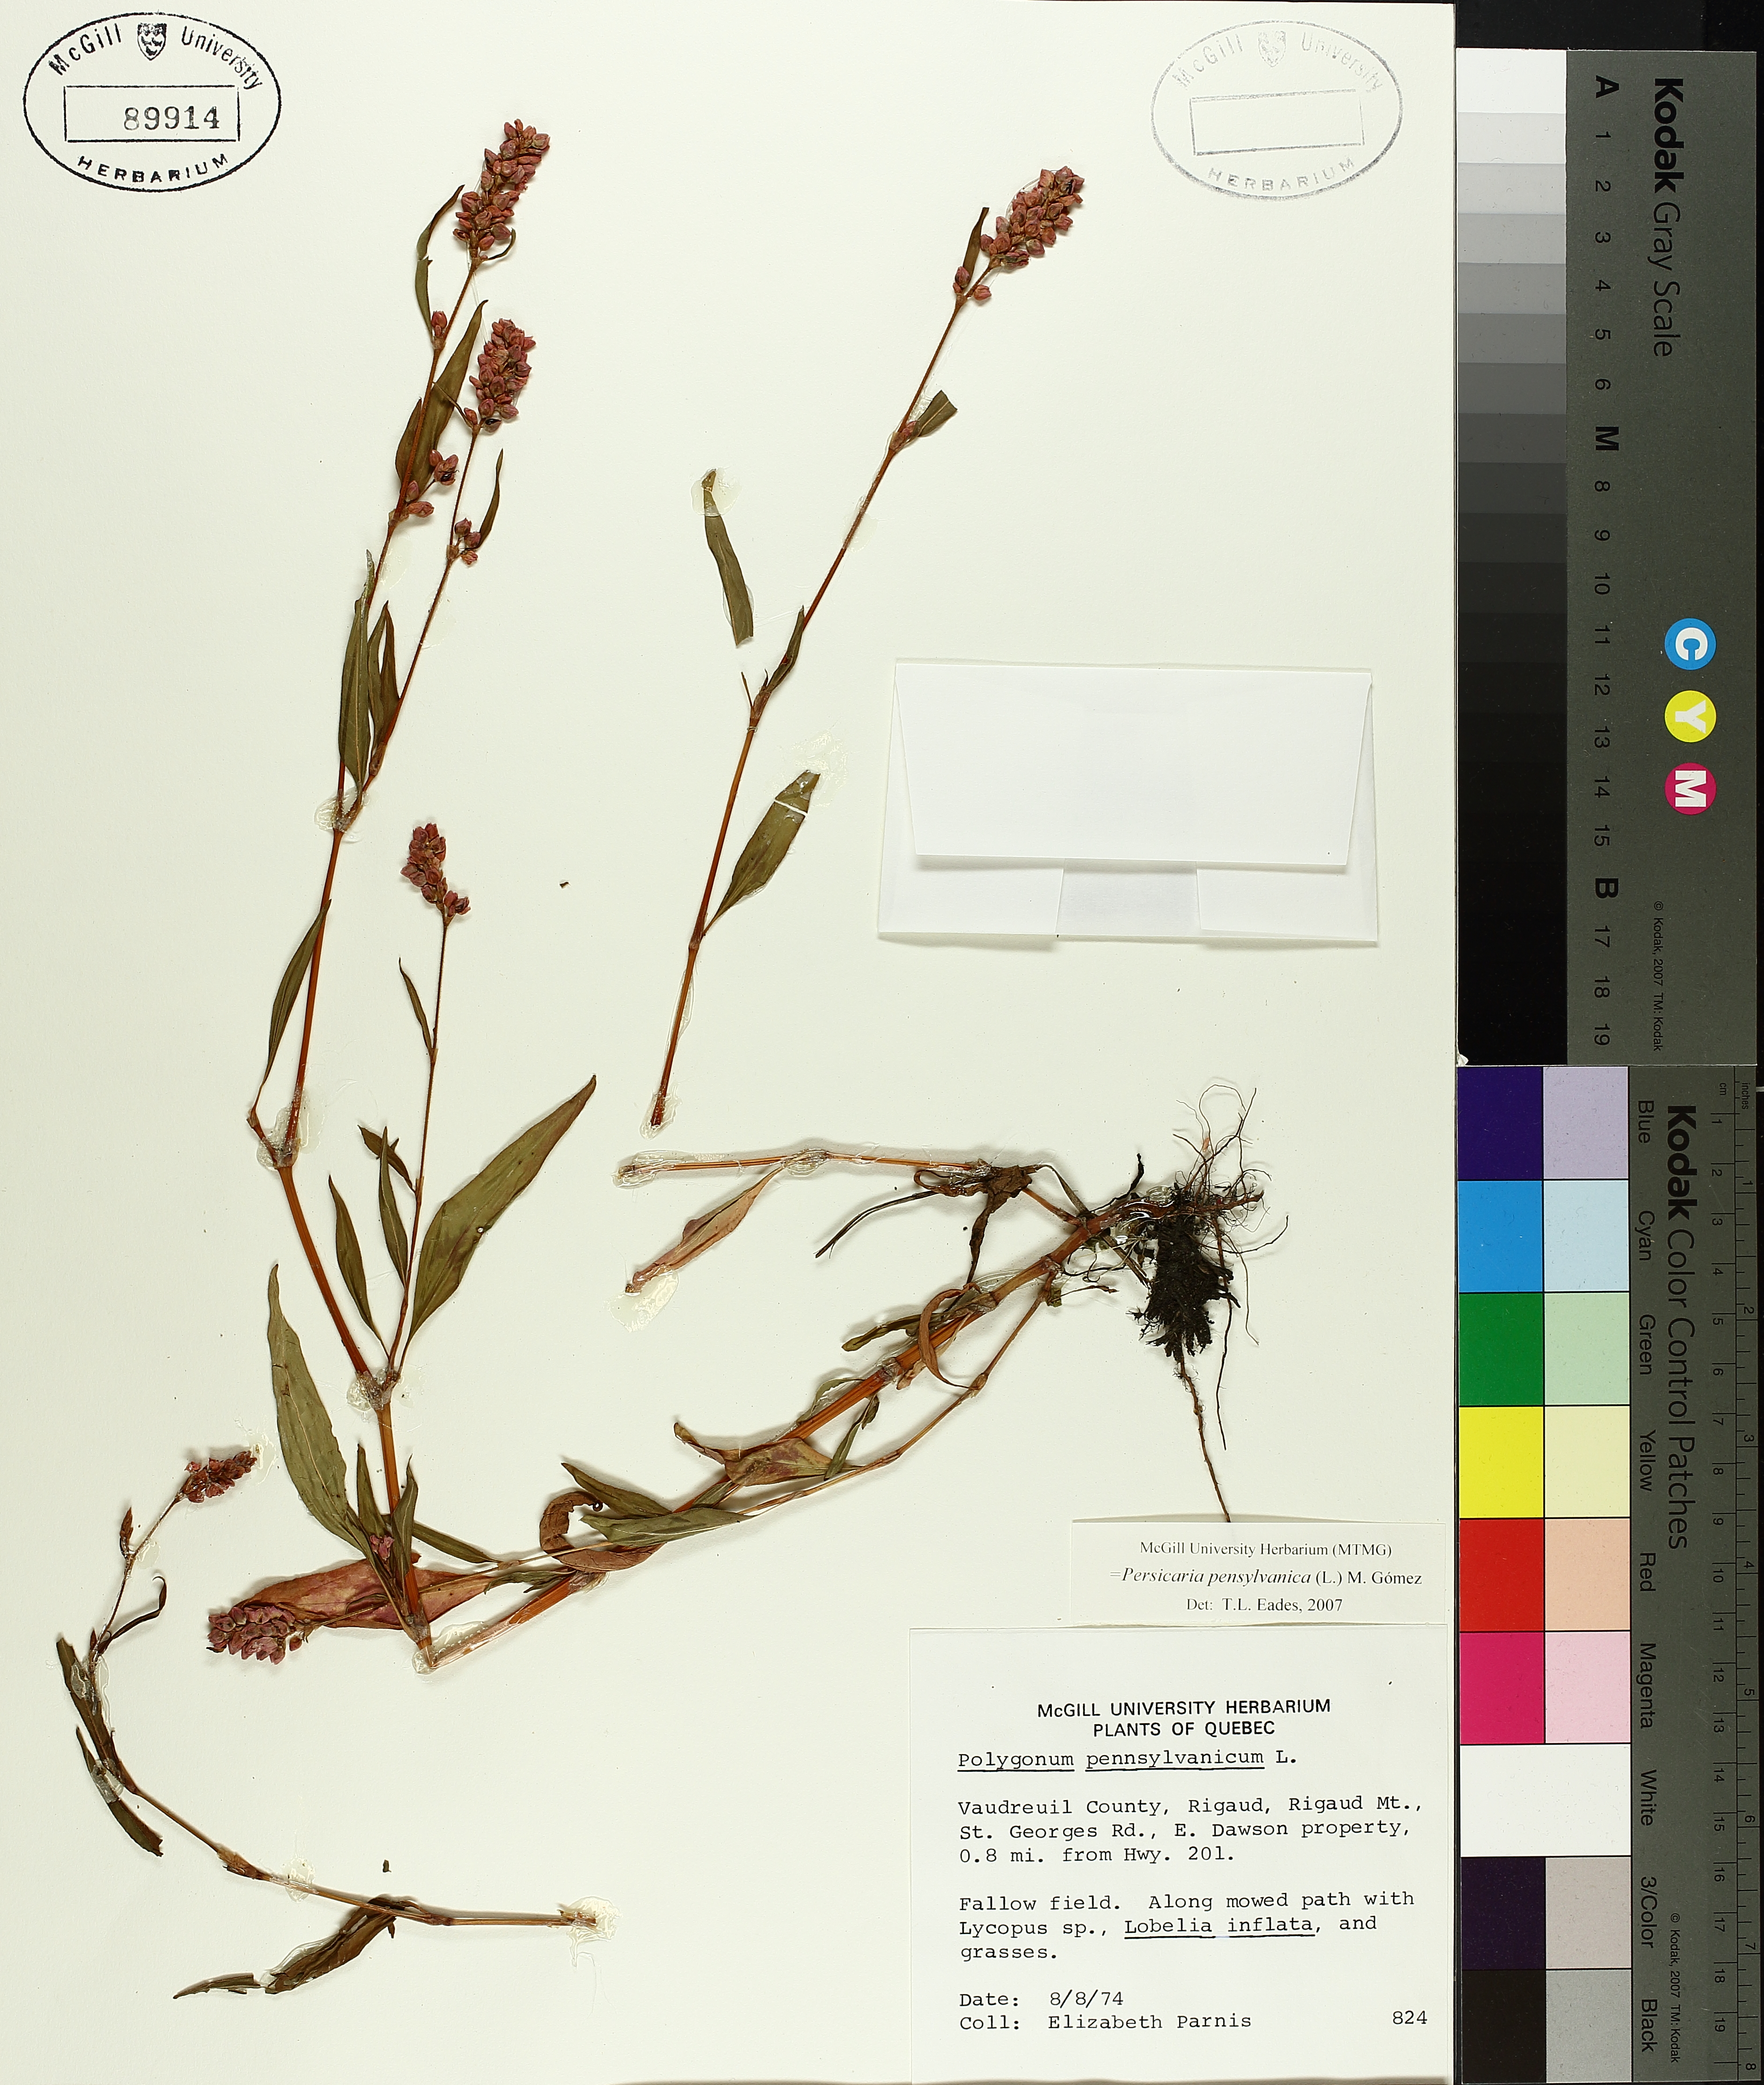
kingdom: Plantae
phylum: Tracheophyta
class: Magnoliopsida
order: Caryophyllales
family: Polygonaceae
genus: Persicaria
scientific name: Persicaria bungeana
